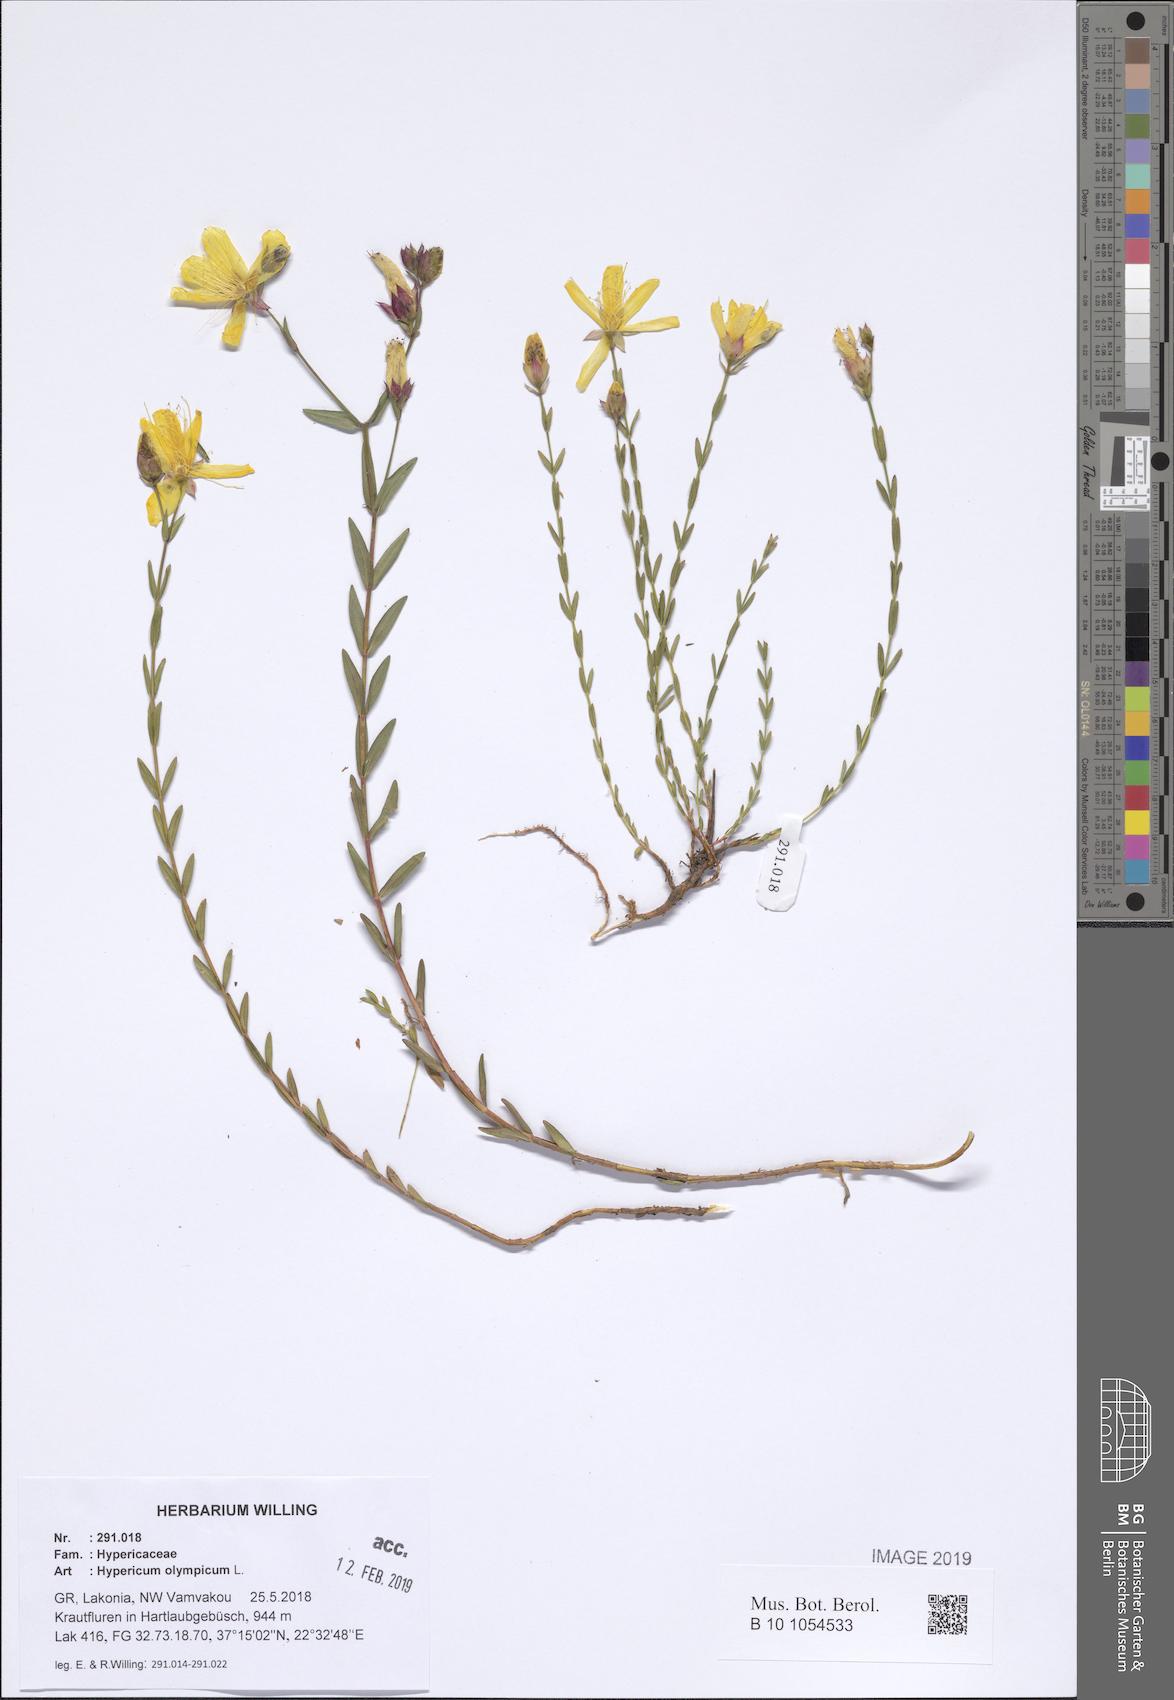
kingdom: Plantae
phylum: Tracheophyta
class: Magnoliopsida
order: Malpighiales
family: Hypericaceae
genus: Hypericum
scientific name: Hypericum olympicum
